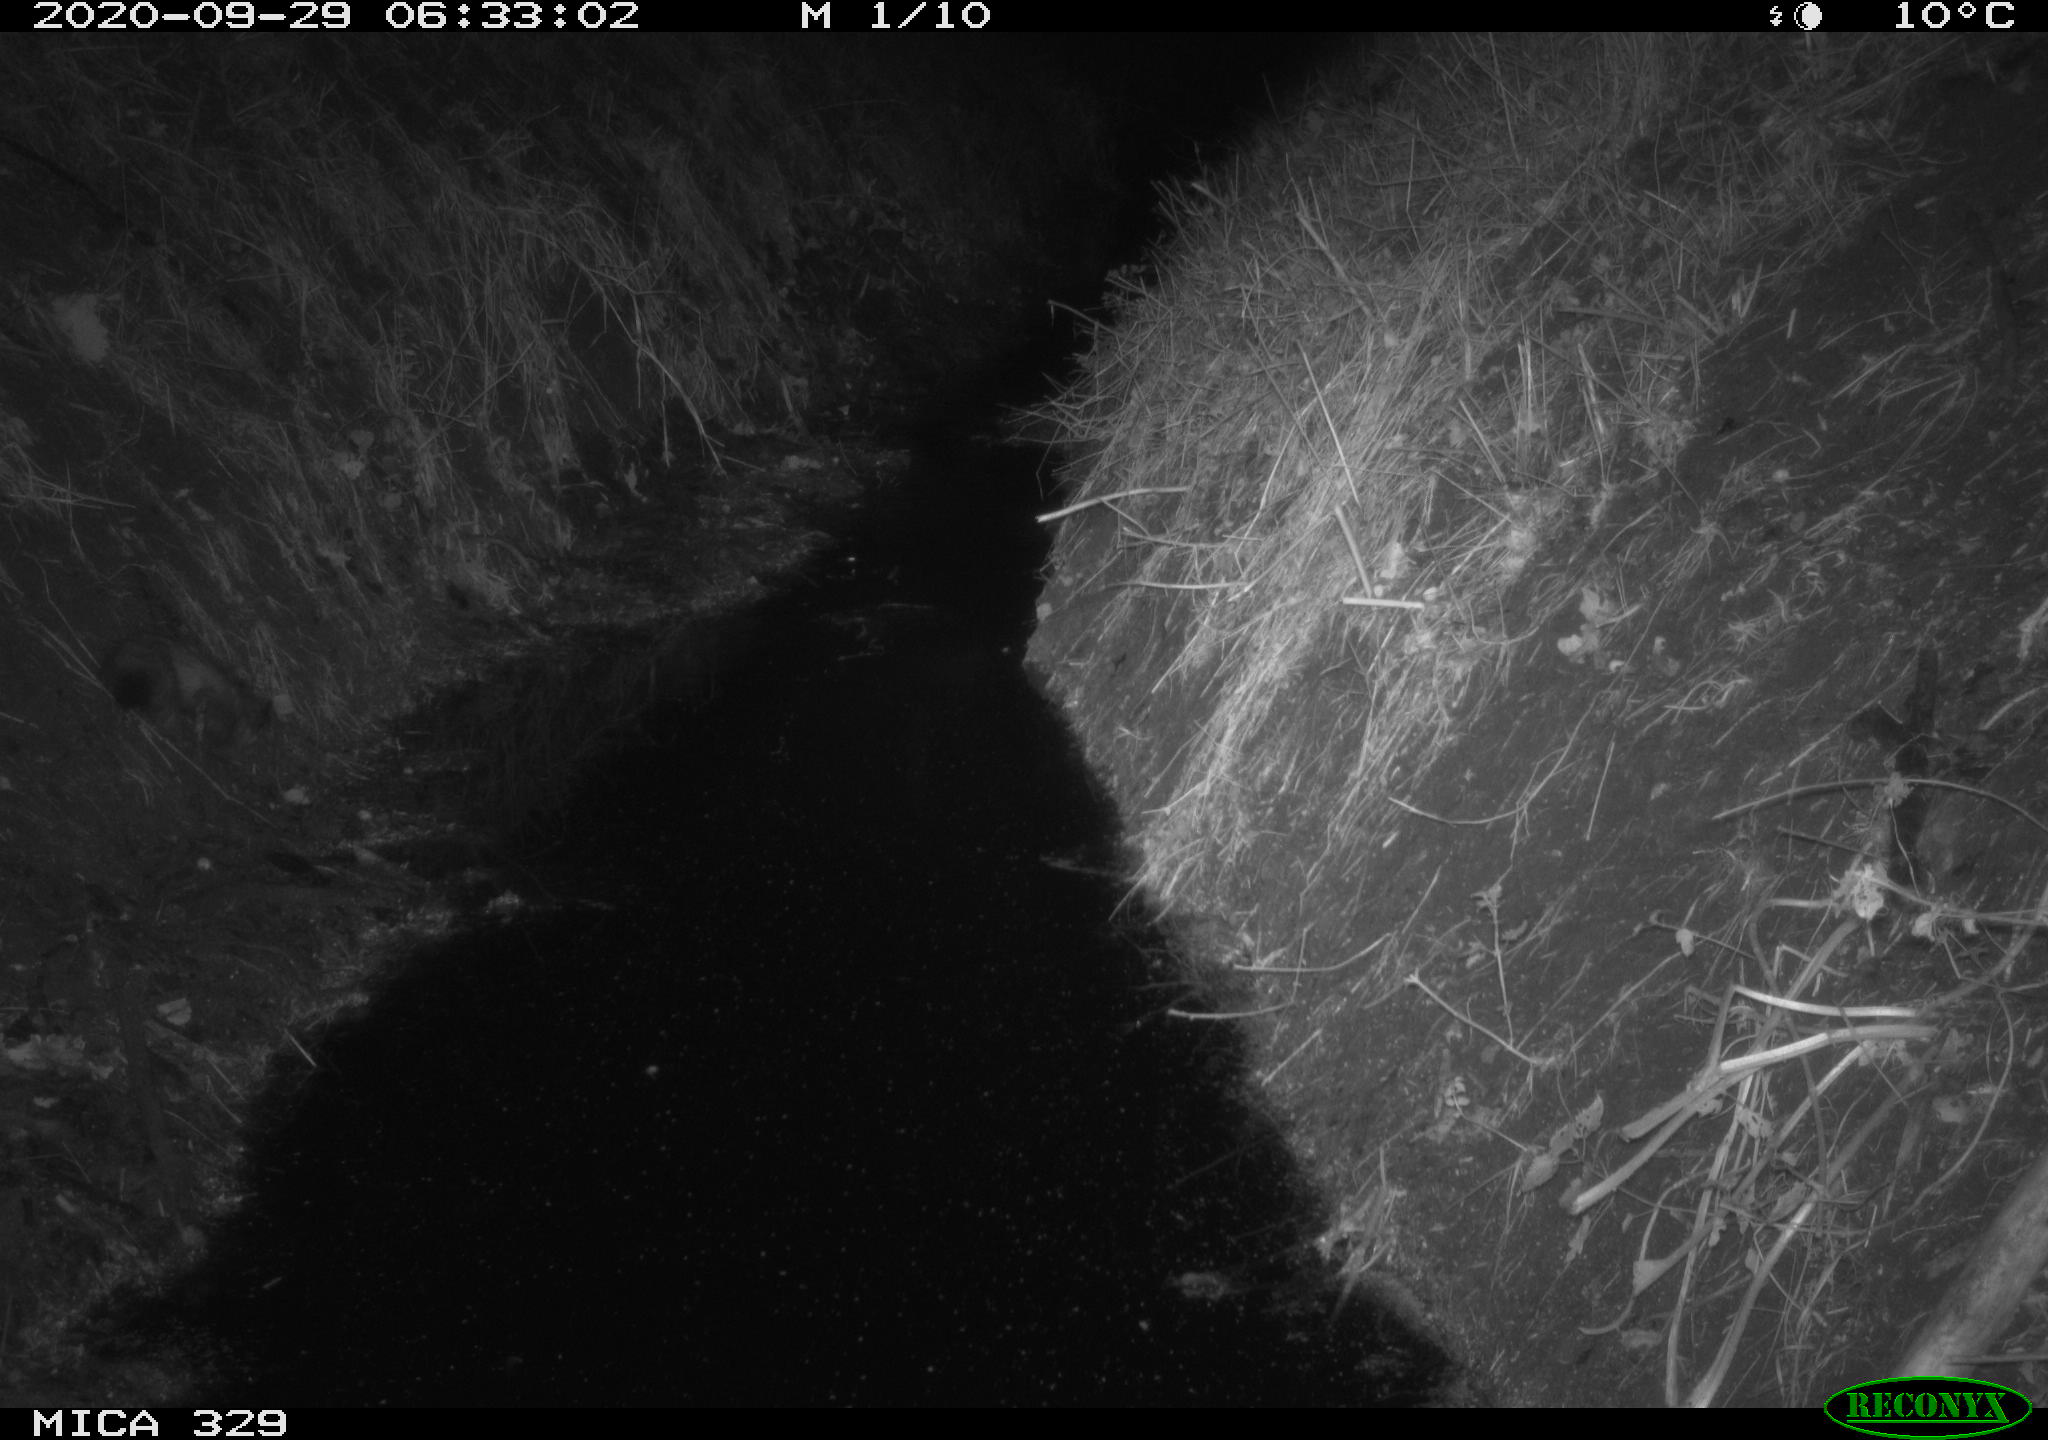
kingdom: Animalia
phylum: Chordata
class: Mammalia
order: Carnivora
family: Mustelidae
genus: Mustela
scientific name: Mustela erminea
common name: Stoat
